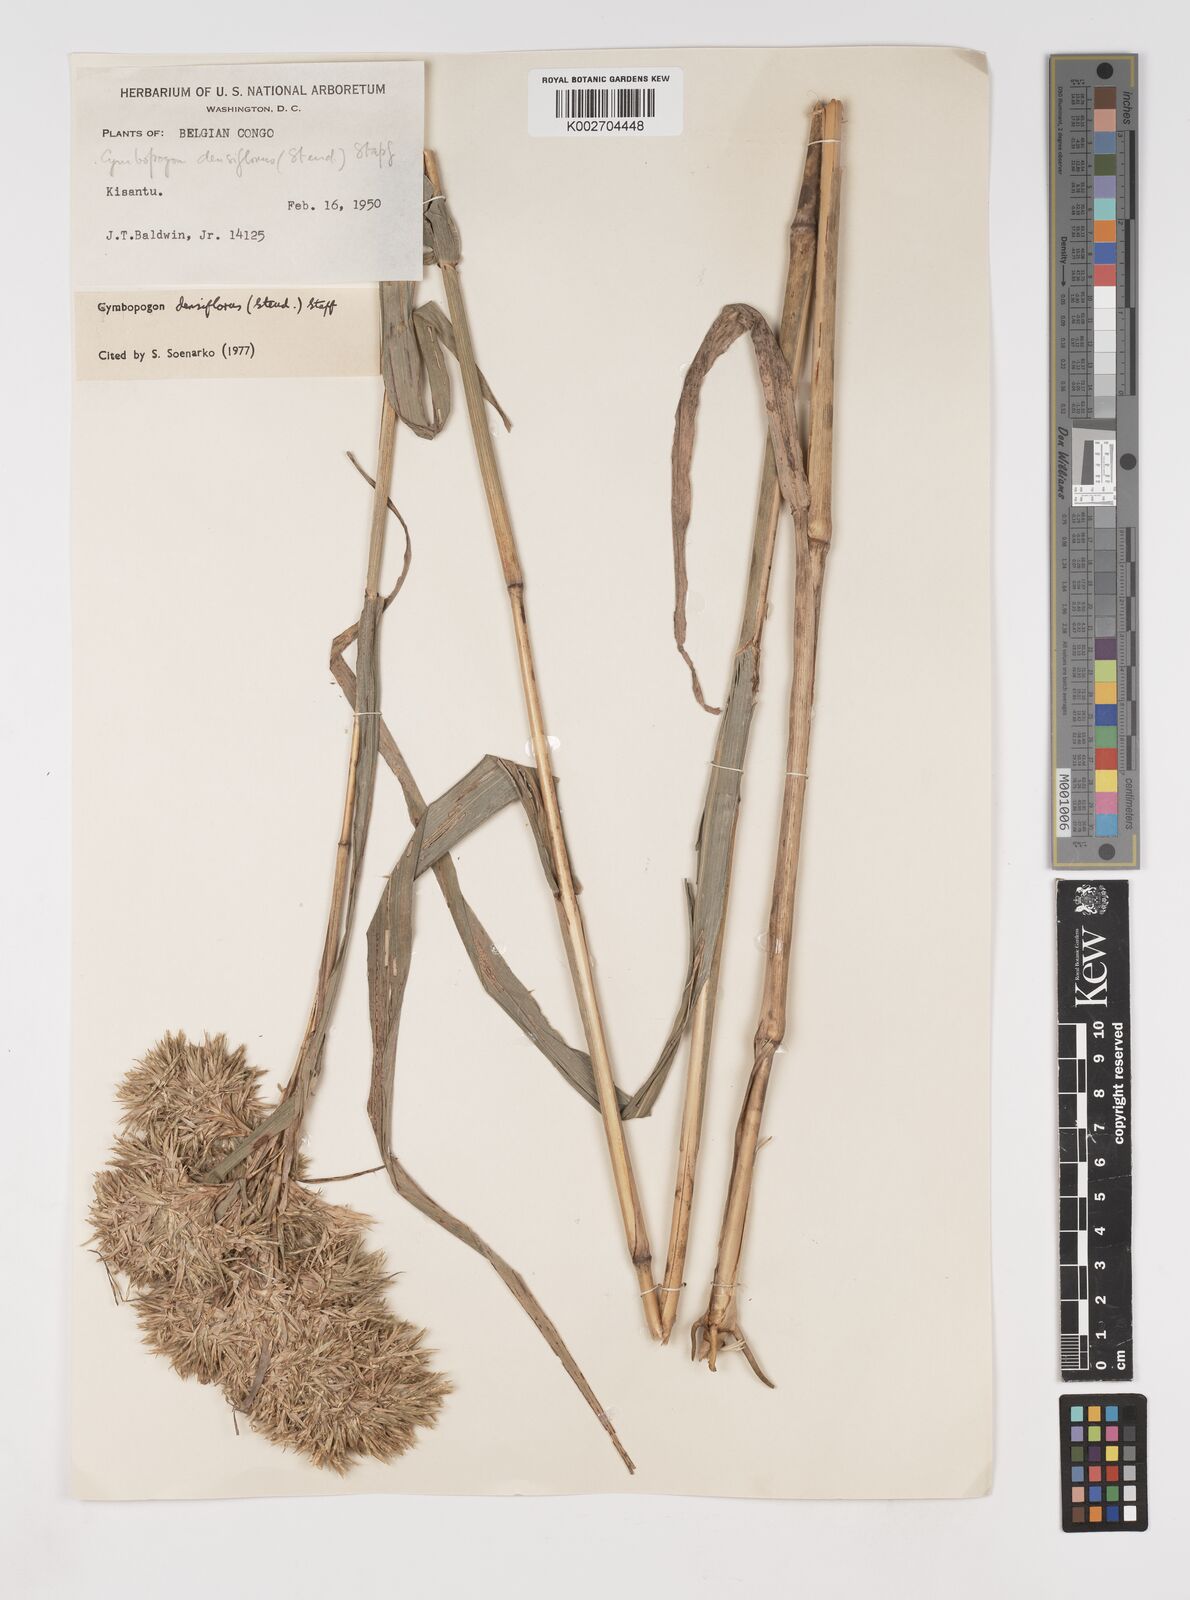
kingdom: Plantae
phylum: Tracheophyta
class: Liliopsida
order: Poales
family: Poaceae
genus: Cymbopogon
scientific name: Cymbopogon densiflorus
